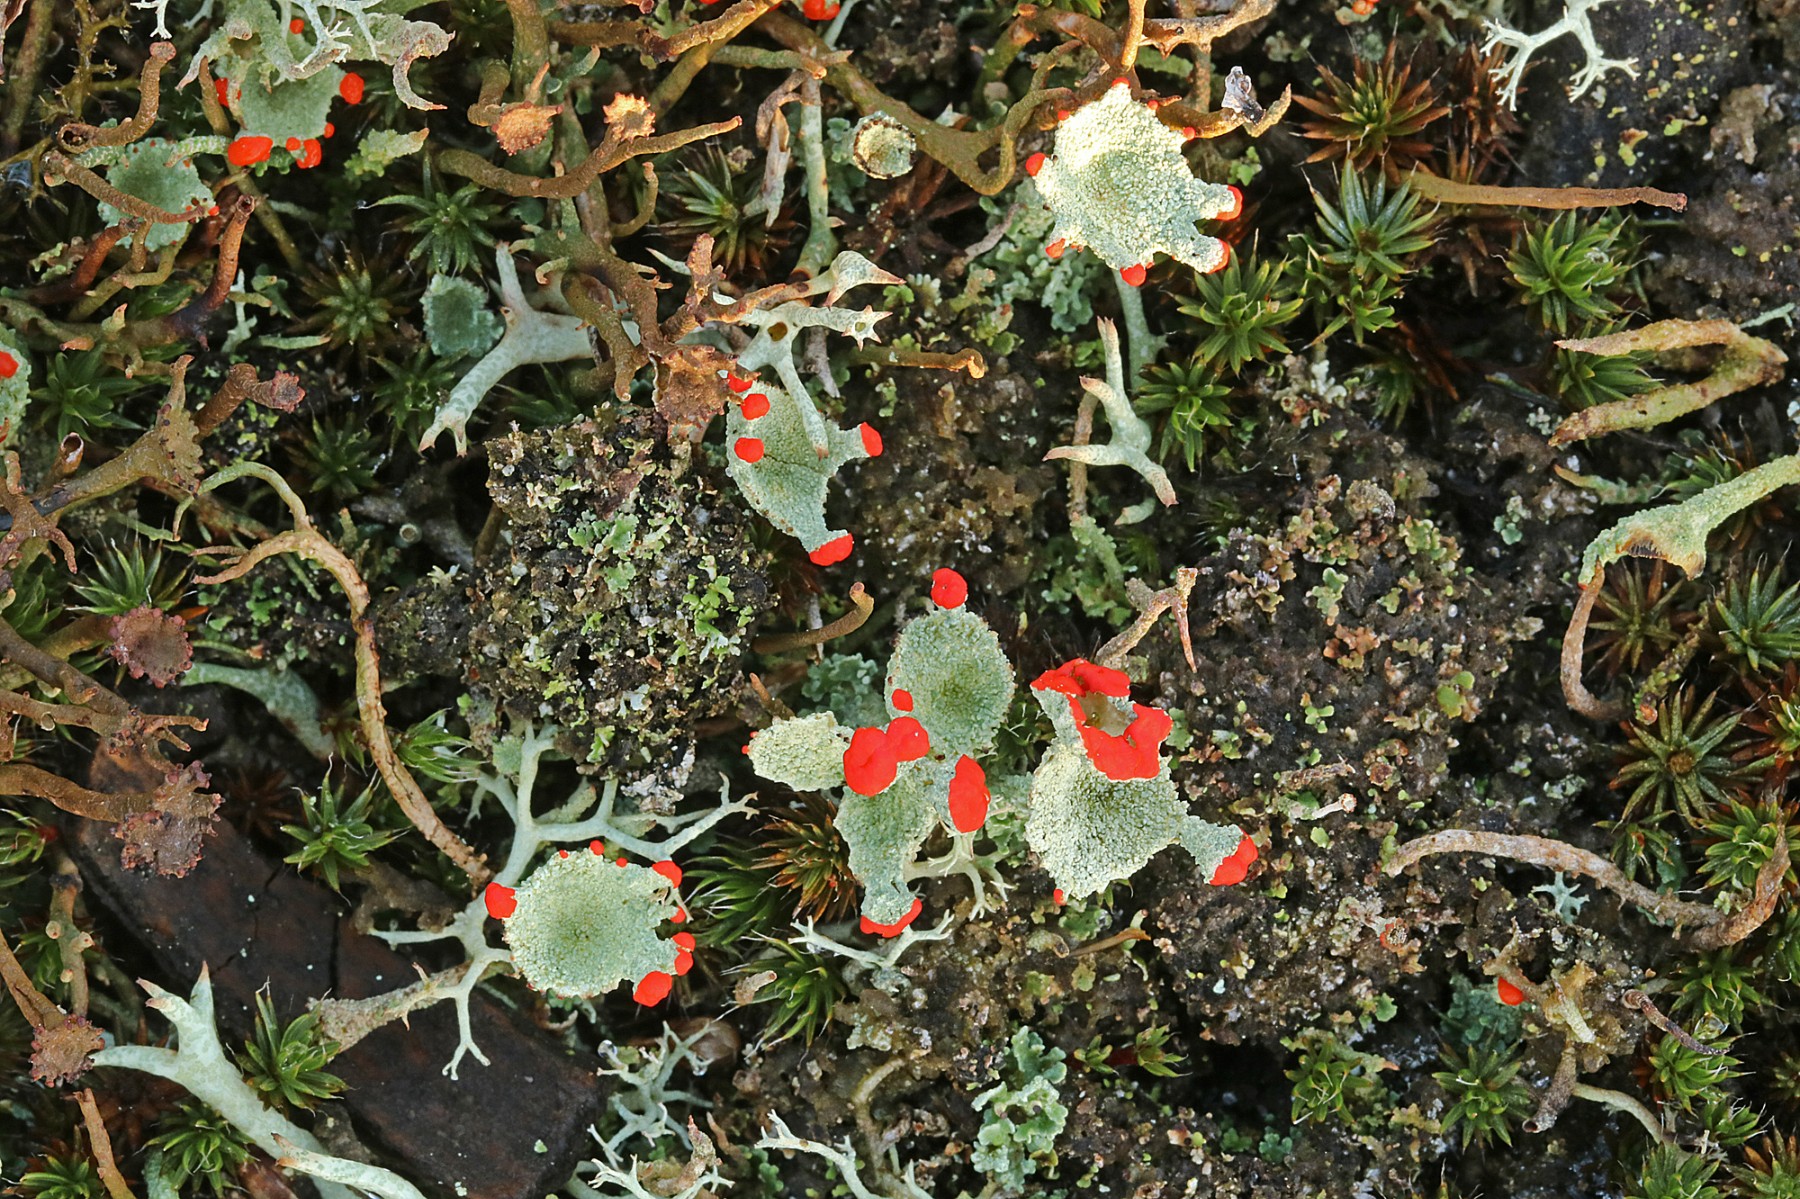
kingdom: Fungi
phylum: Ascomycota
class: Lecanoromycetes
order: Lecanorales
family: Cladoniaceae
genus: Cladonia
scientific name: Cladonia diversa
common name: rød bægerlav
